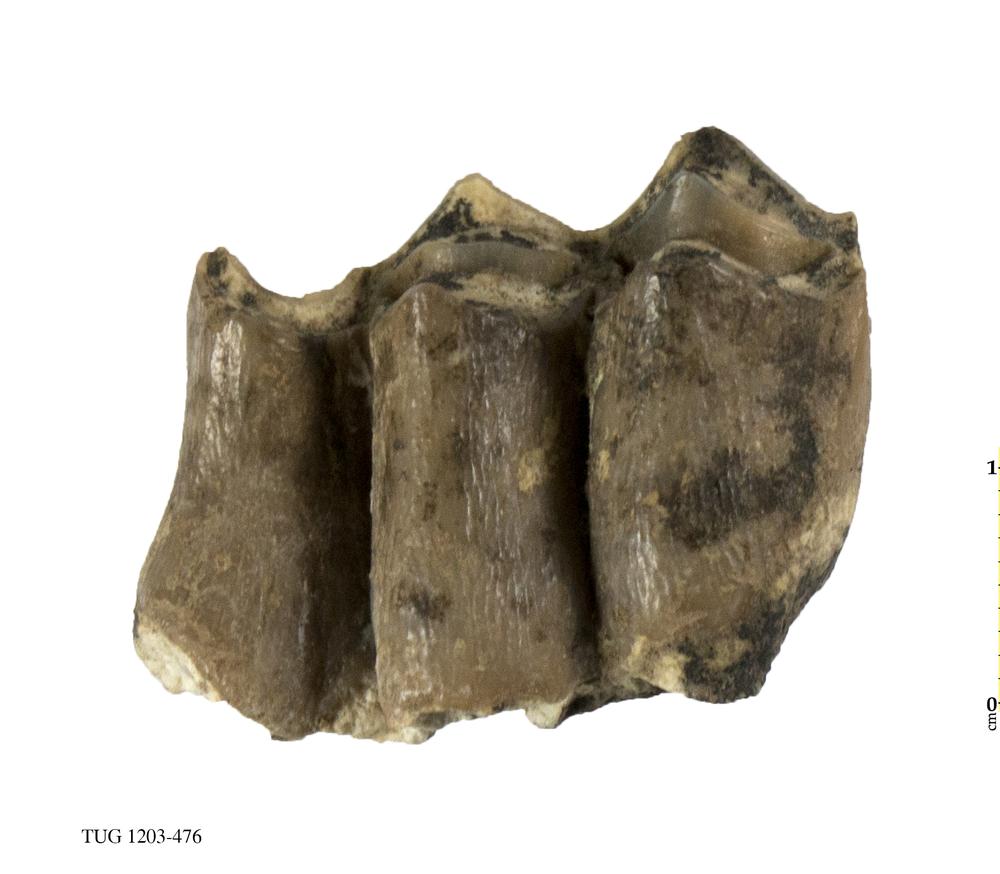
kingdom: Animalia
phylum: Chordata
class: Mammalia
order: Perissodactyla
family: Equidae
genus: Hipparion
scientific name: Hipparion
